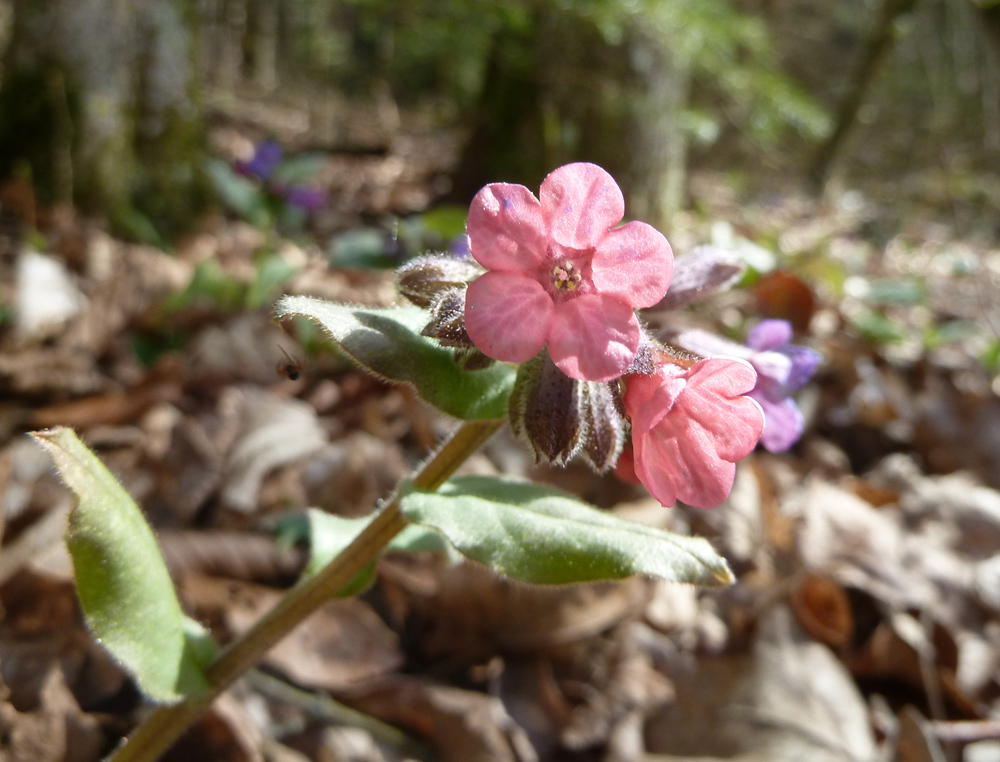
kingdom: Plantae
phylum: Tracheophyta
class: Magnoliopsida
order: Boraginales
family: Boraginaceae
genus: Pulmonaria
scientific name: Pulmonaria officinalis
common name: Lungwort
